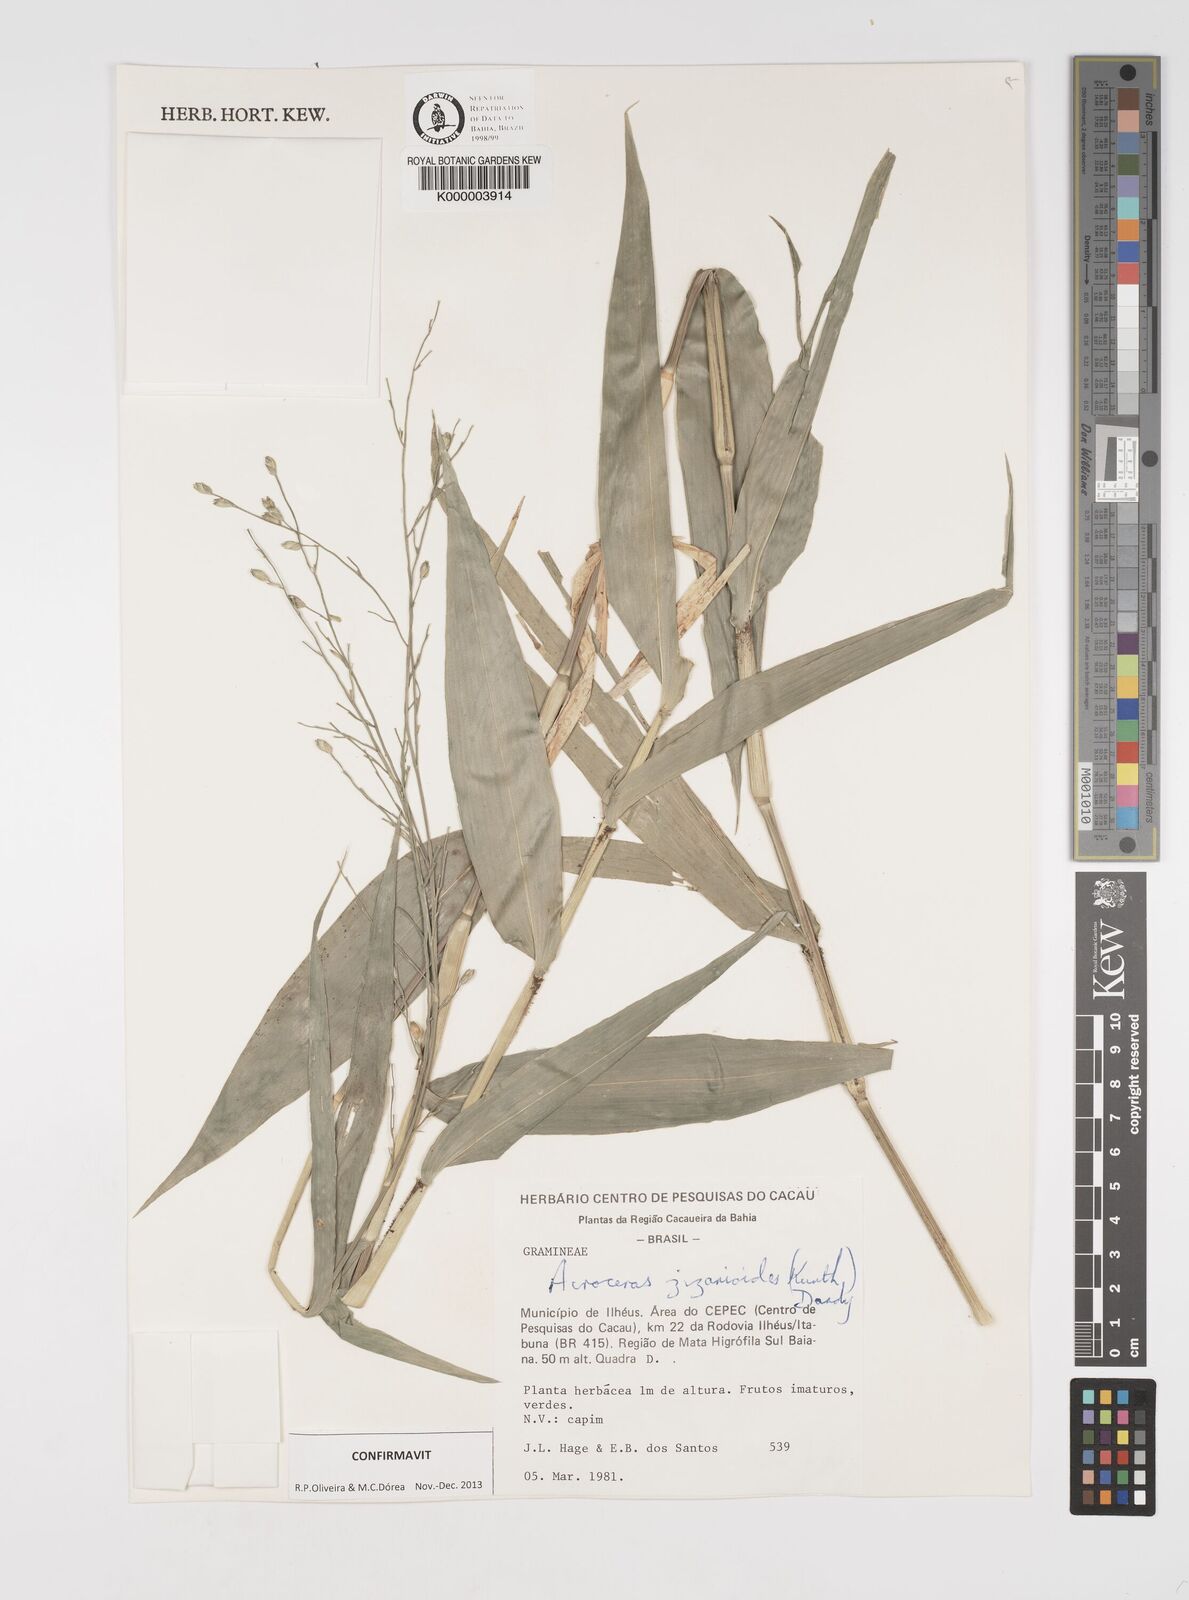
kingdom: Plantae
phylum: Tracheophyta
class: Liliopsida
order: Poales
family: Poaceae
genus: Acroceras
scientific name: Acroceras zizanioides
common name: Oat grass
